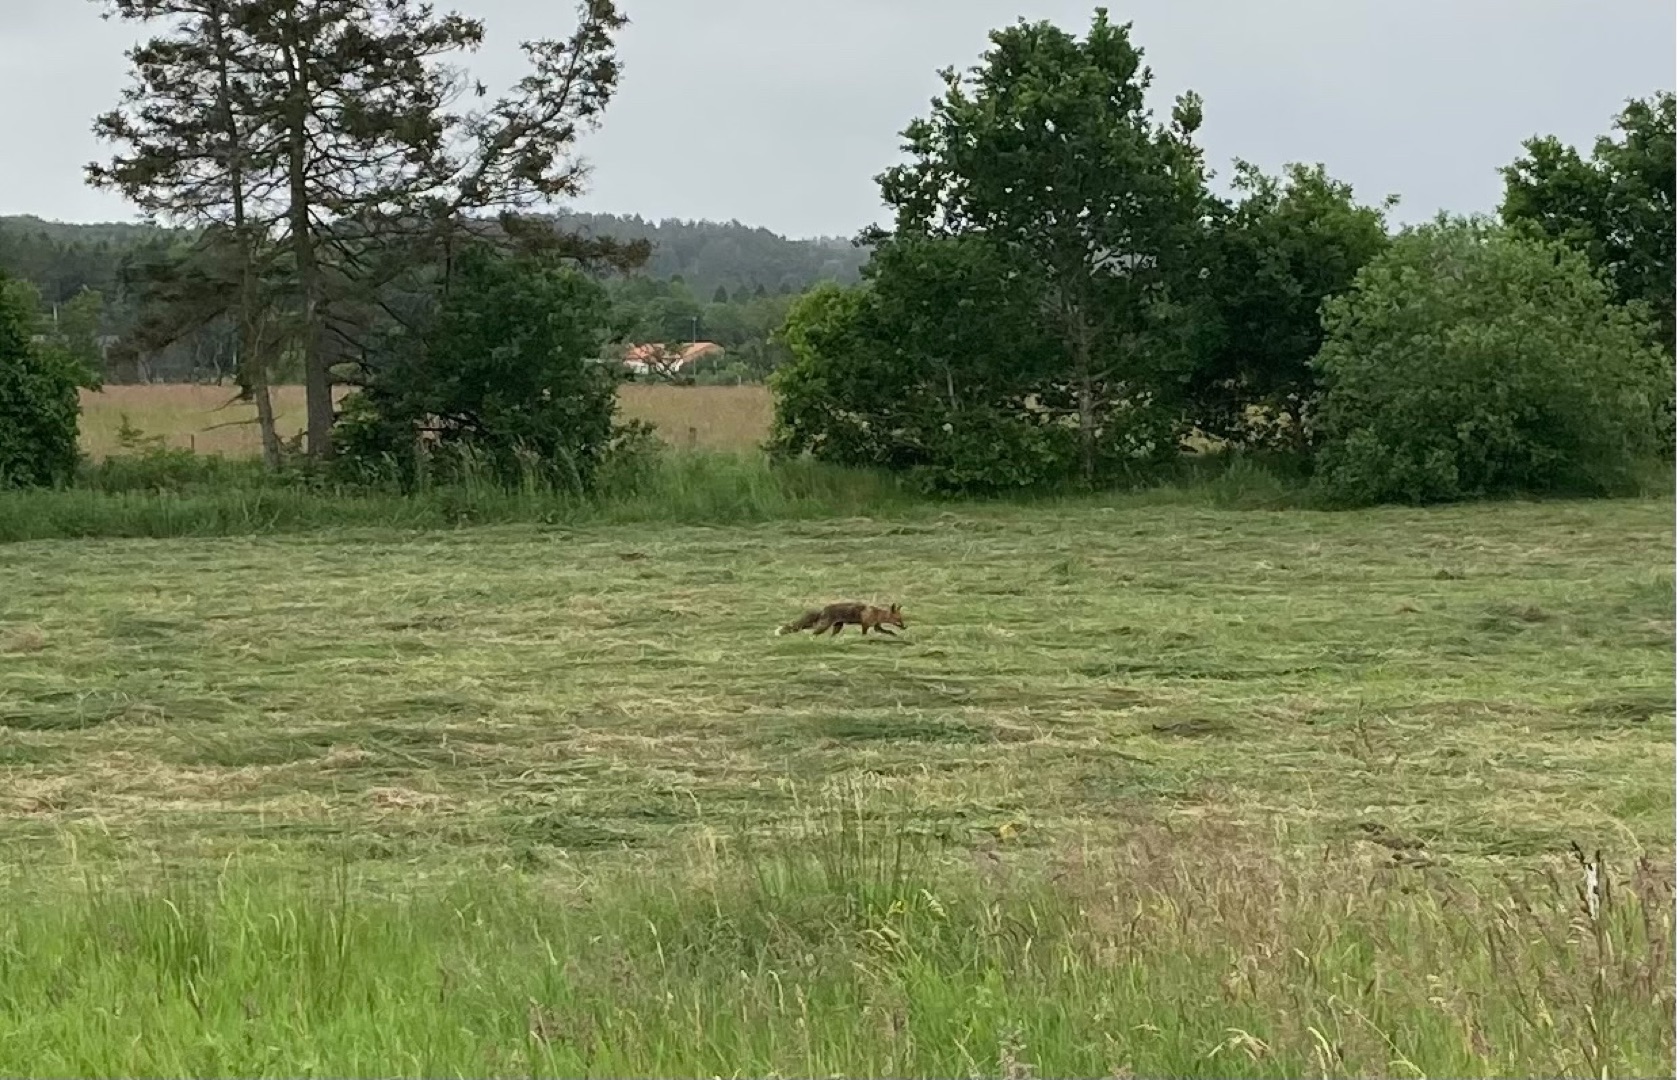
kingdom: Animalia
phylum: Chordata
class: Mammalia
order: Carnivora
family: Canidae
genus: Vulpes
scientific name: Vulpes vulpes
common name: Ræv
